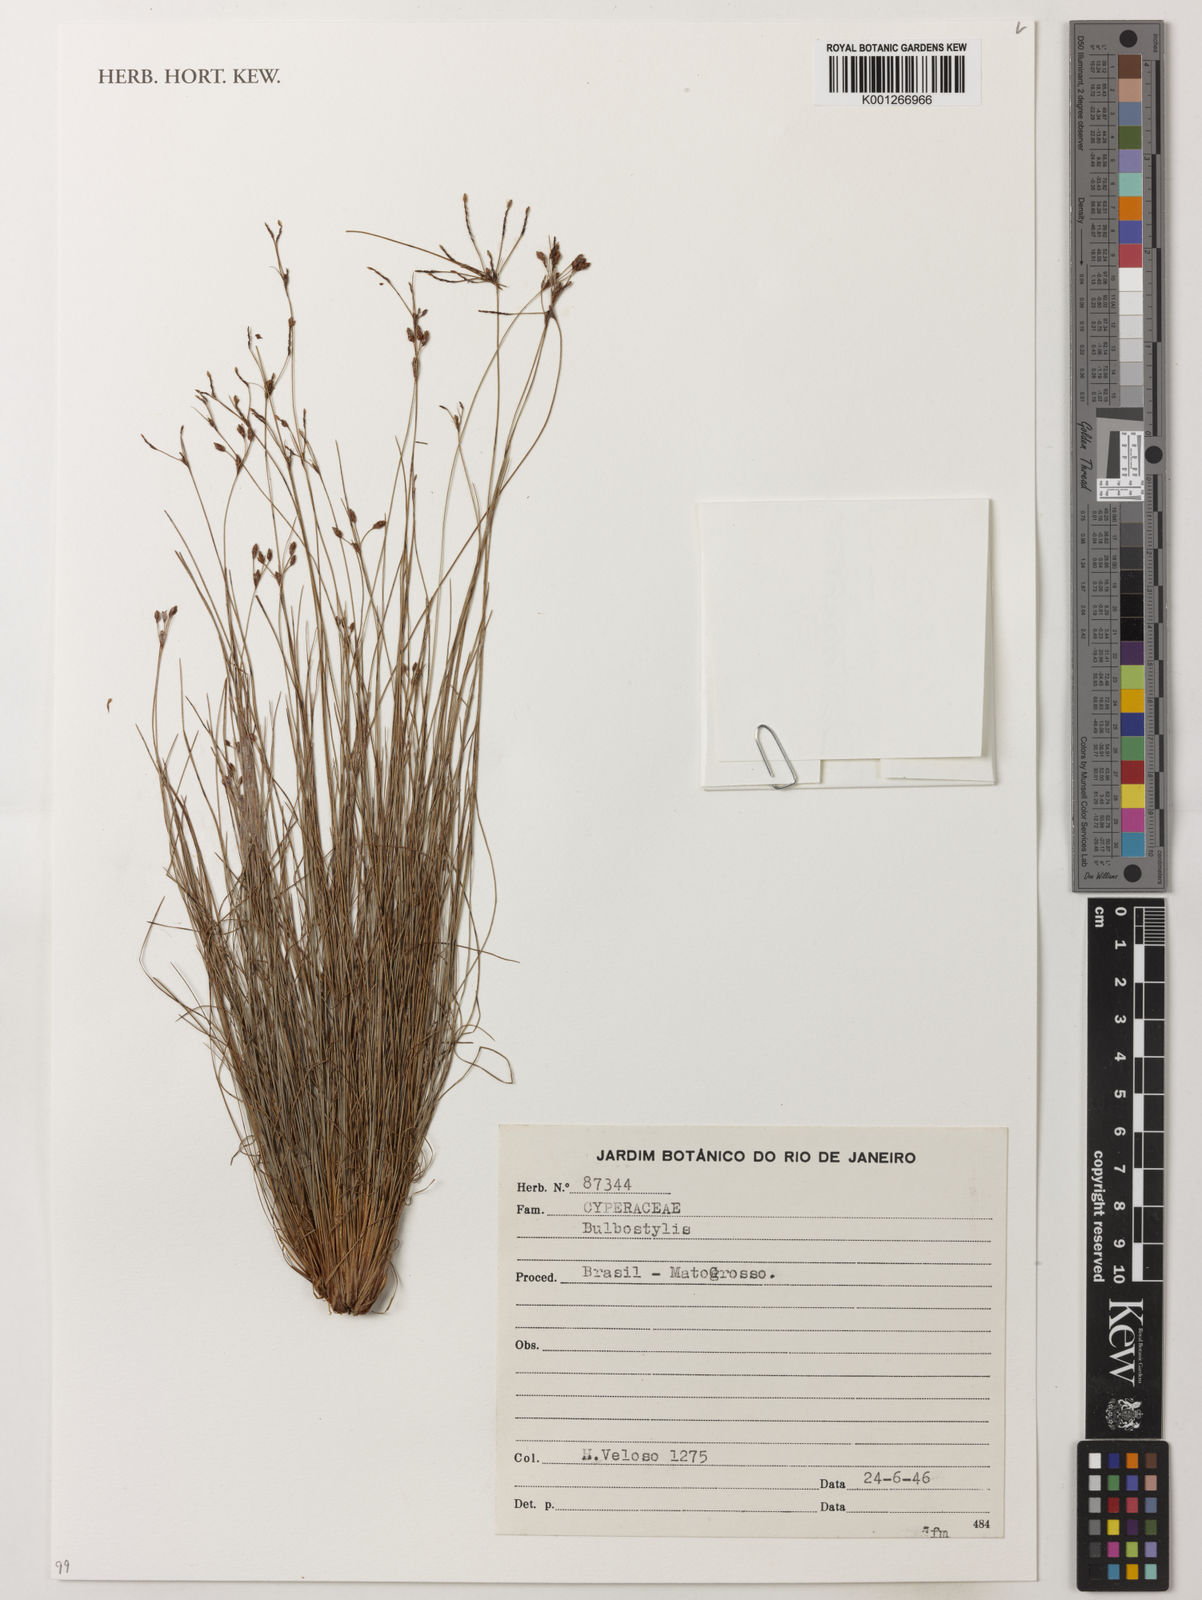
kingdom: Plantae
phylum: Tracheophyta
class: Liliopsida
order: Poales
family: Cyperaceae
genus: Bulbostylis
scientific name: Bulbostylis
